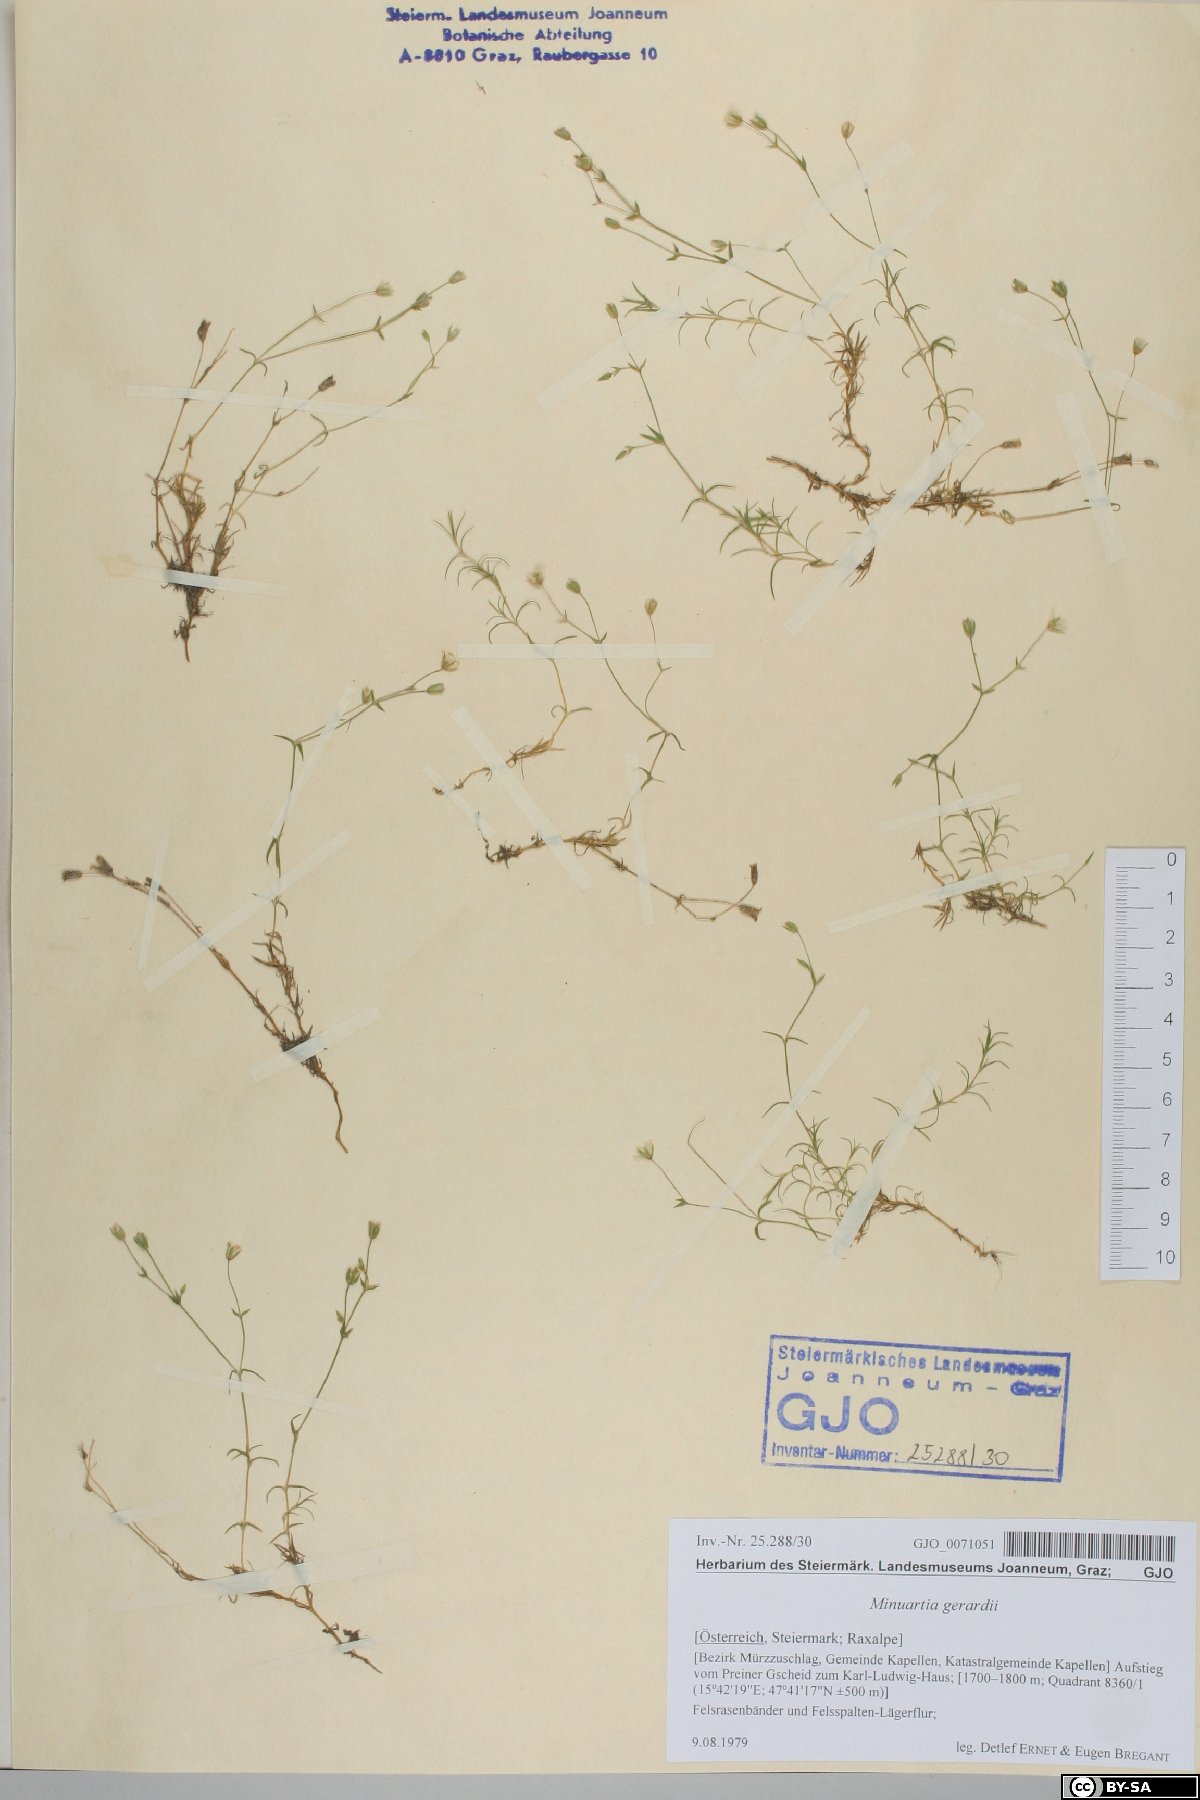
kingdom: Plantae
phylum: Tracheophyta
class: Magnoliopsida
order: Caryophyllales
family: Caryophyllaceae
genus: Sabulina
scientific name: Sabulina verna
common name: Spring sandwort
